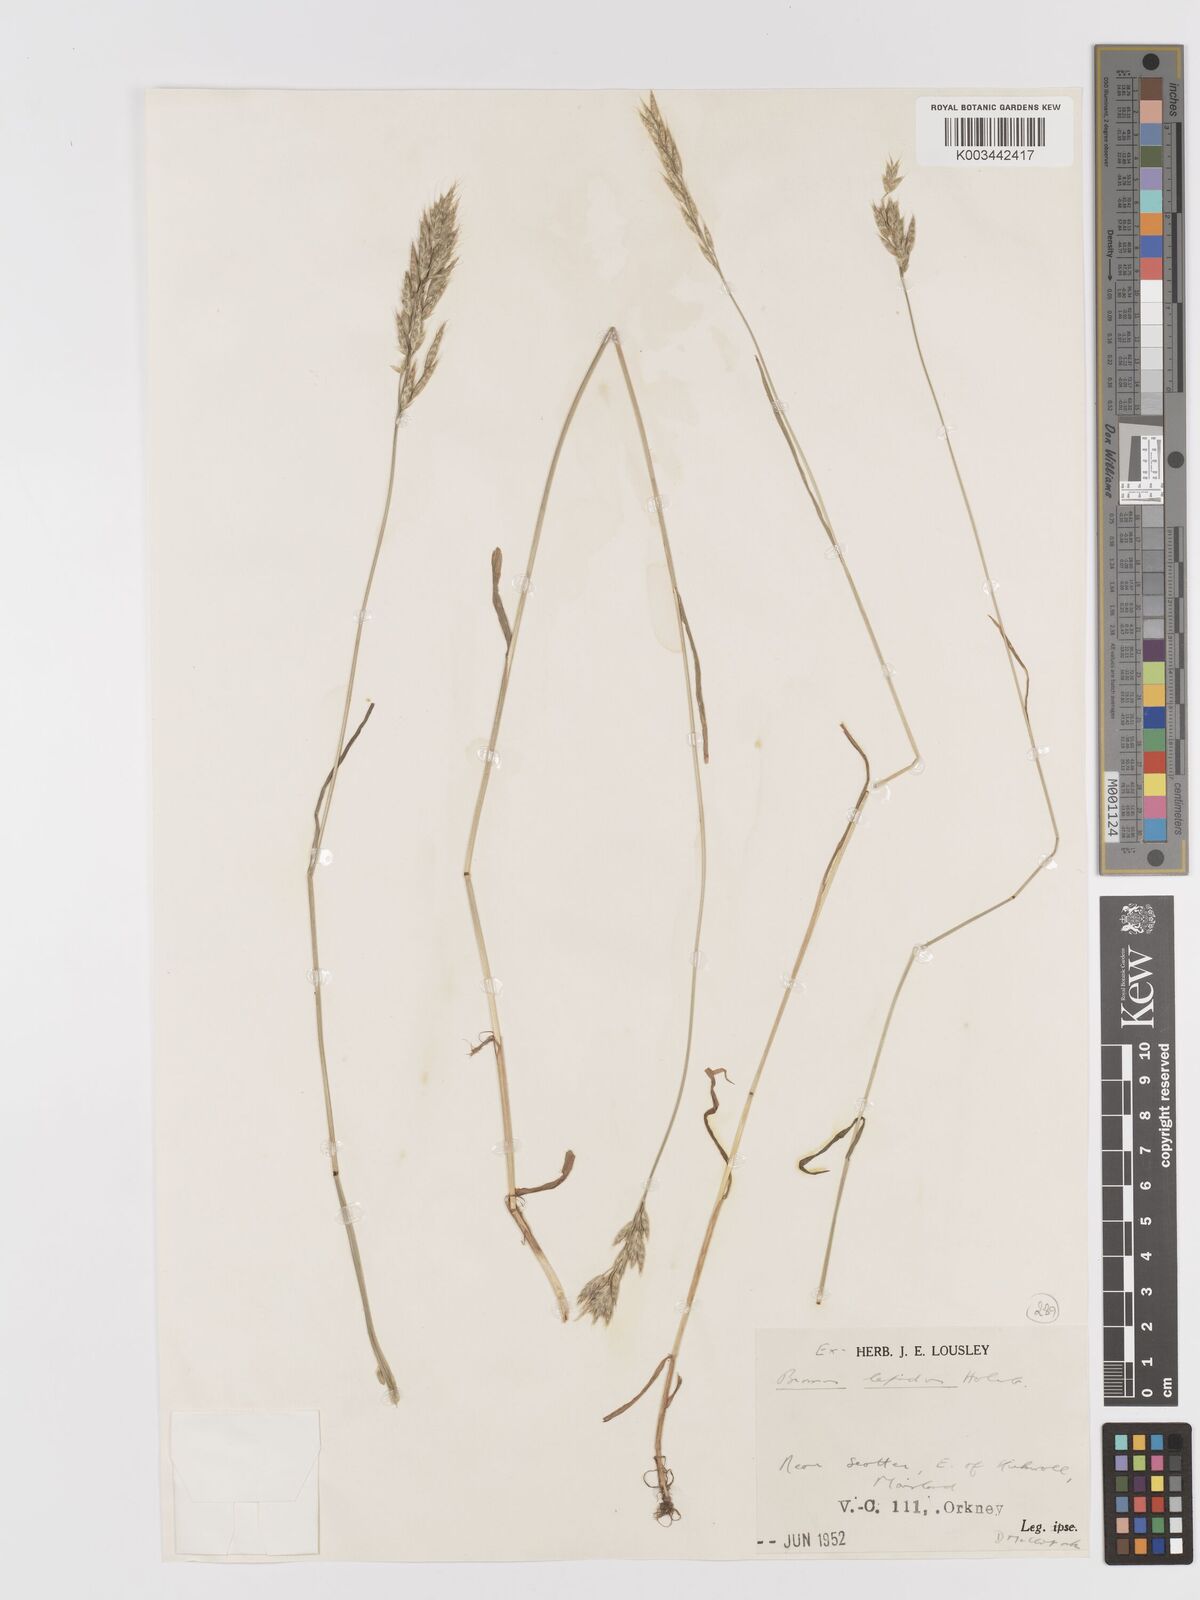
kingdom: Plantae
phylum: Tracheophyta
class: Liliopsida
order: Poales
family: Poaceae
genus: Bromus
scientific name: Bromus lepidus
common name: Slender soft-brome
